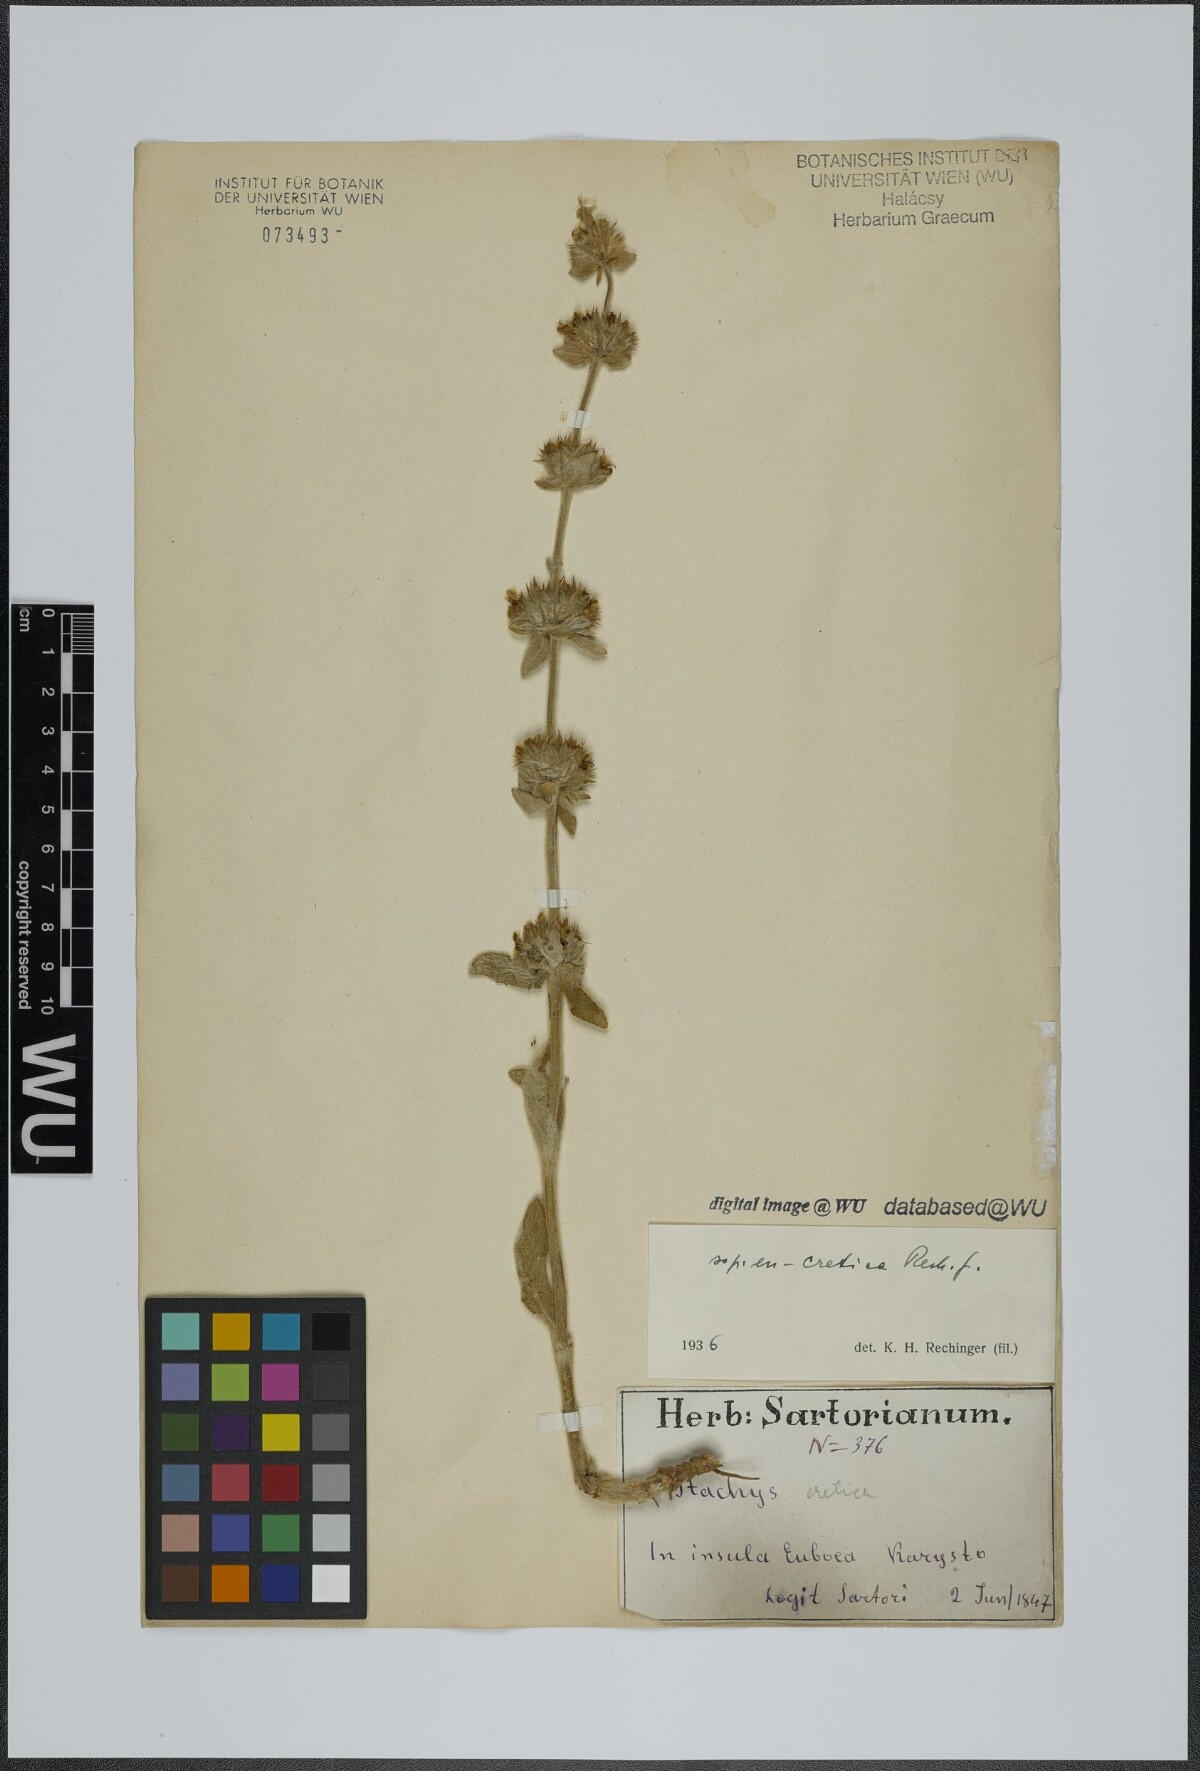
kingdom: Plantae
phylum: Tracheophyta
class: Magnoliopsida
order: Lamiales
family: Lamiaceae
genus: Stachys
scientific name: Stachys cretica
